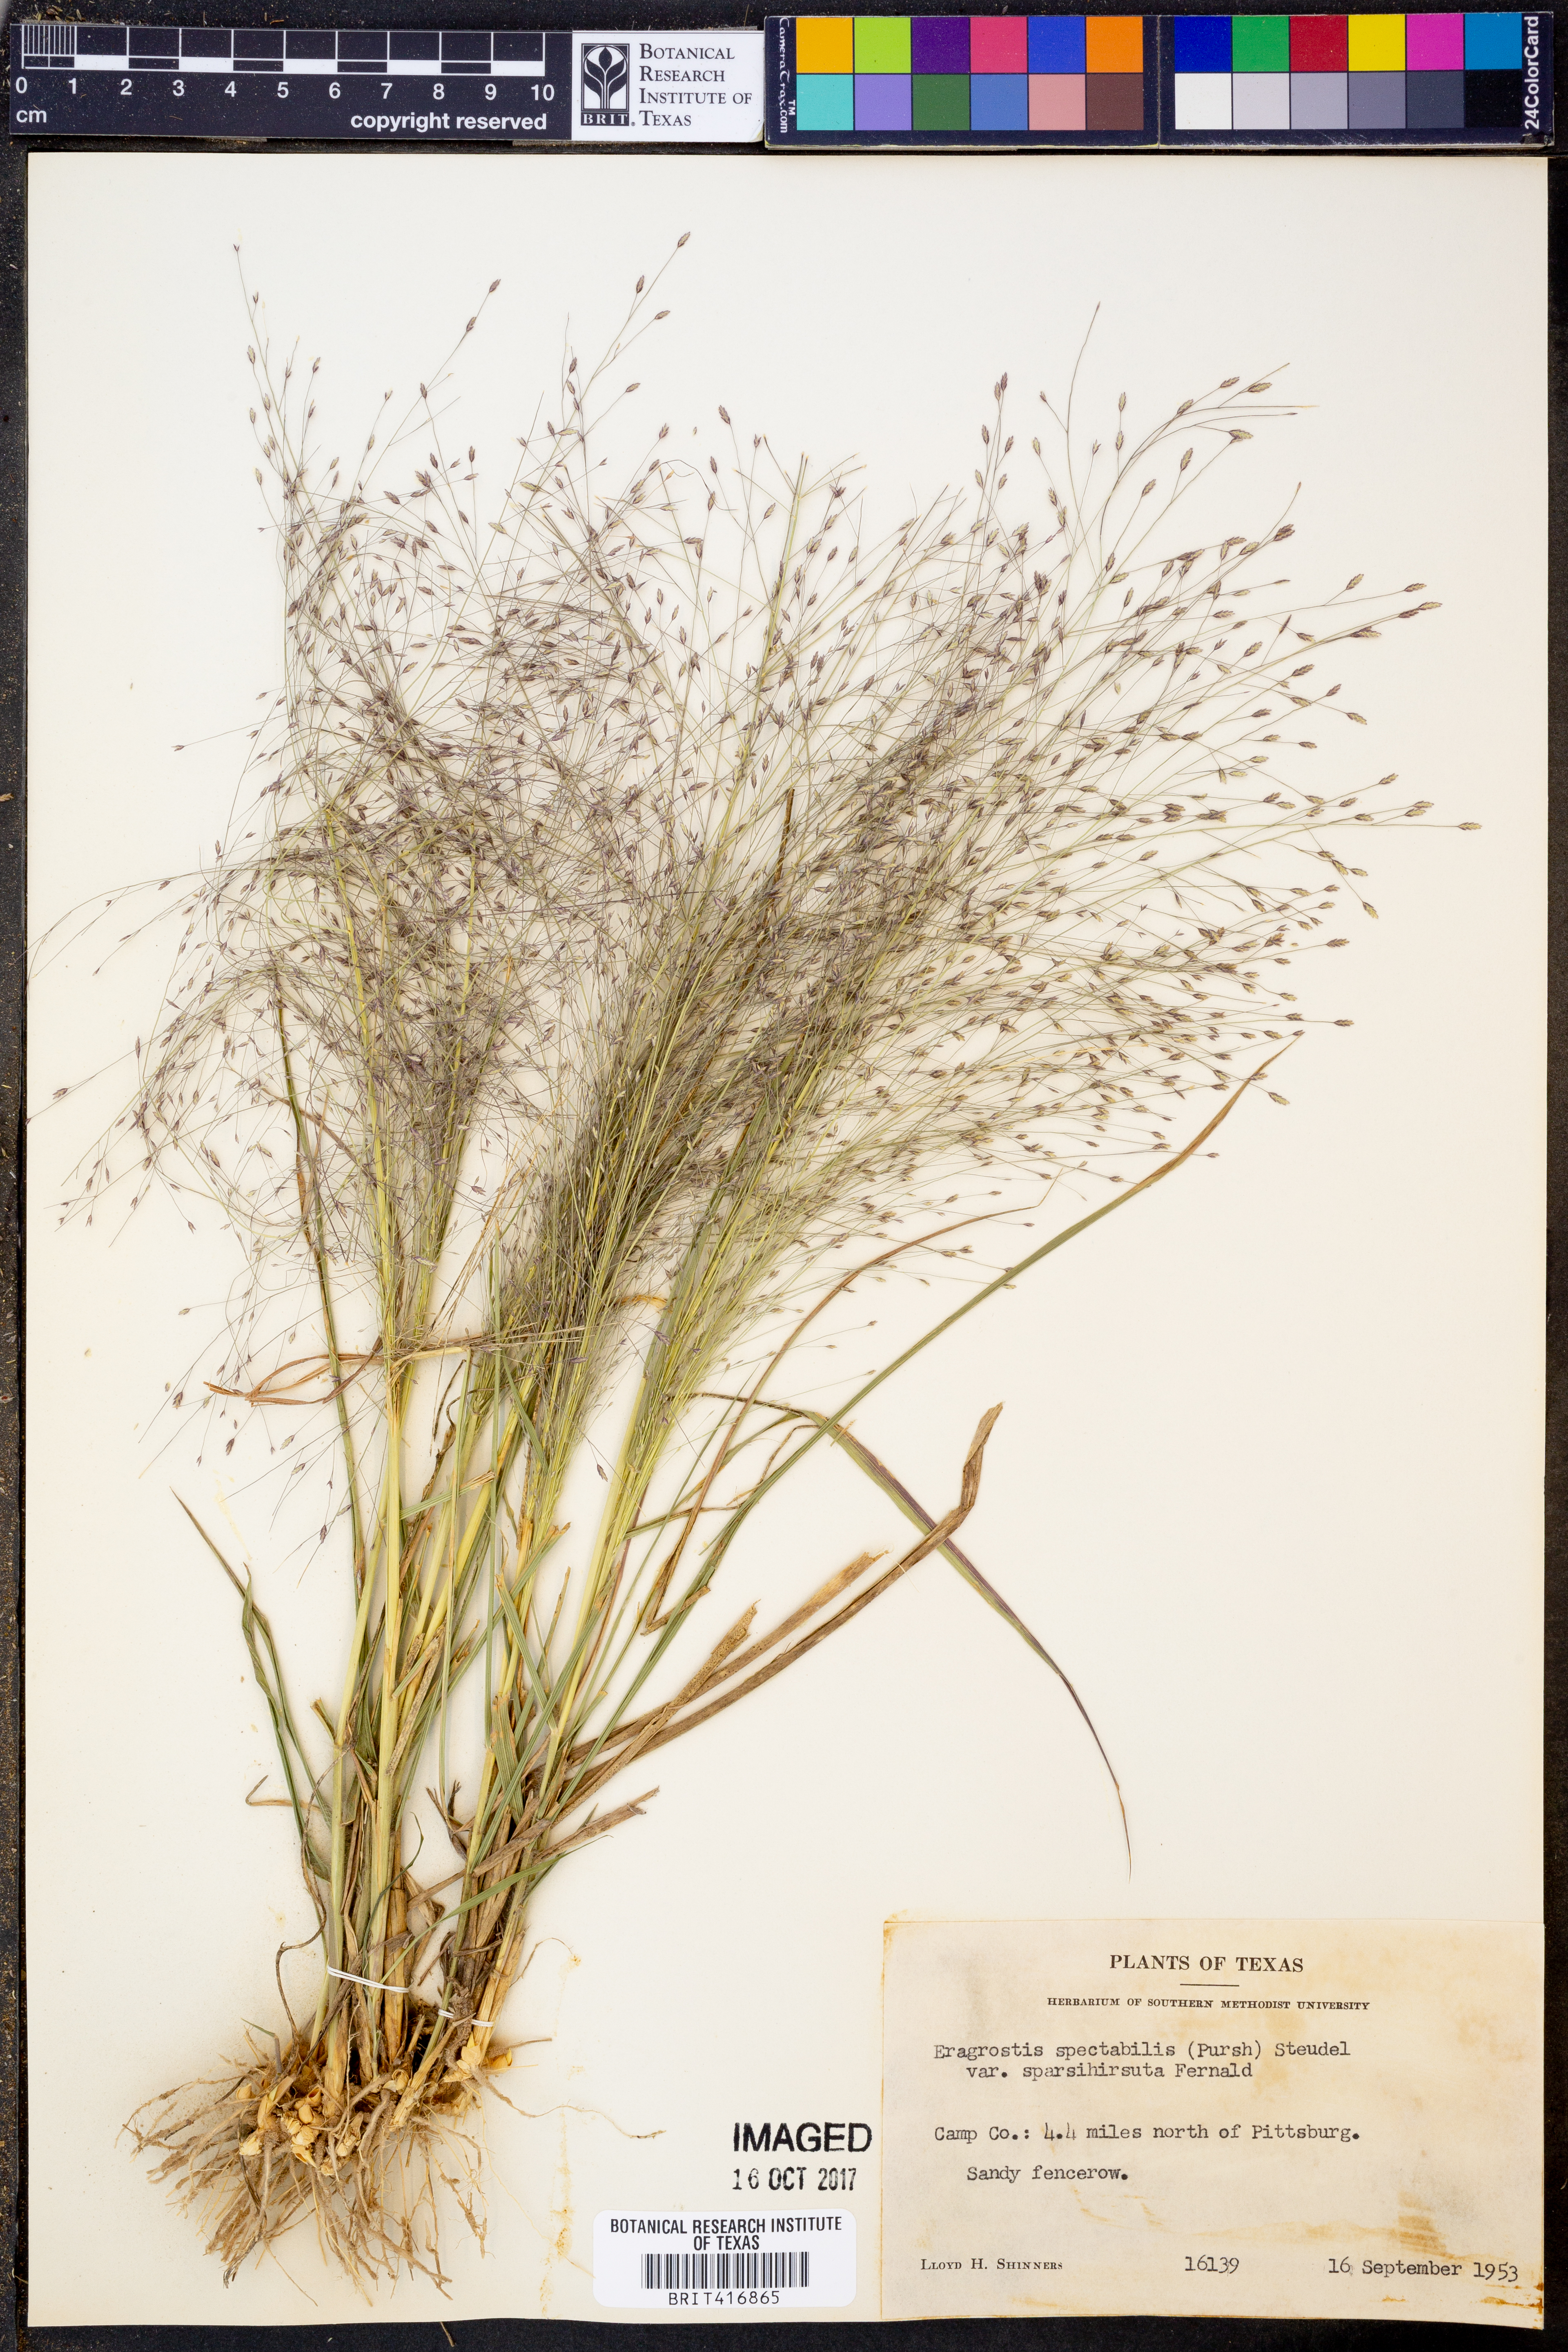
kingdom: Plantae
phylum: Tracheophyta
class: Liliopsida
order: Poales
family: Poaceae
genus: Eragrostis
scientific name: Eragrostis spectabilis
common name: Petticoat-climber
